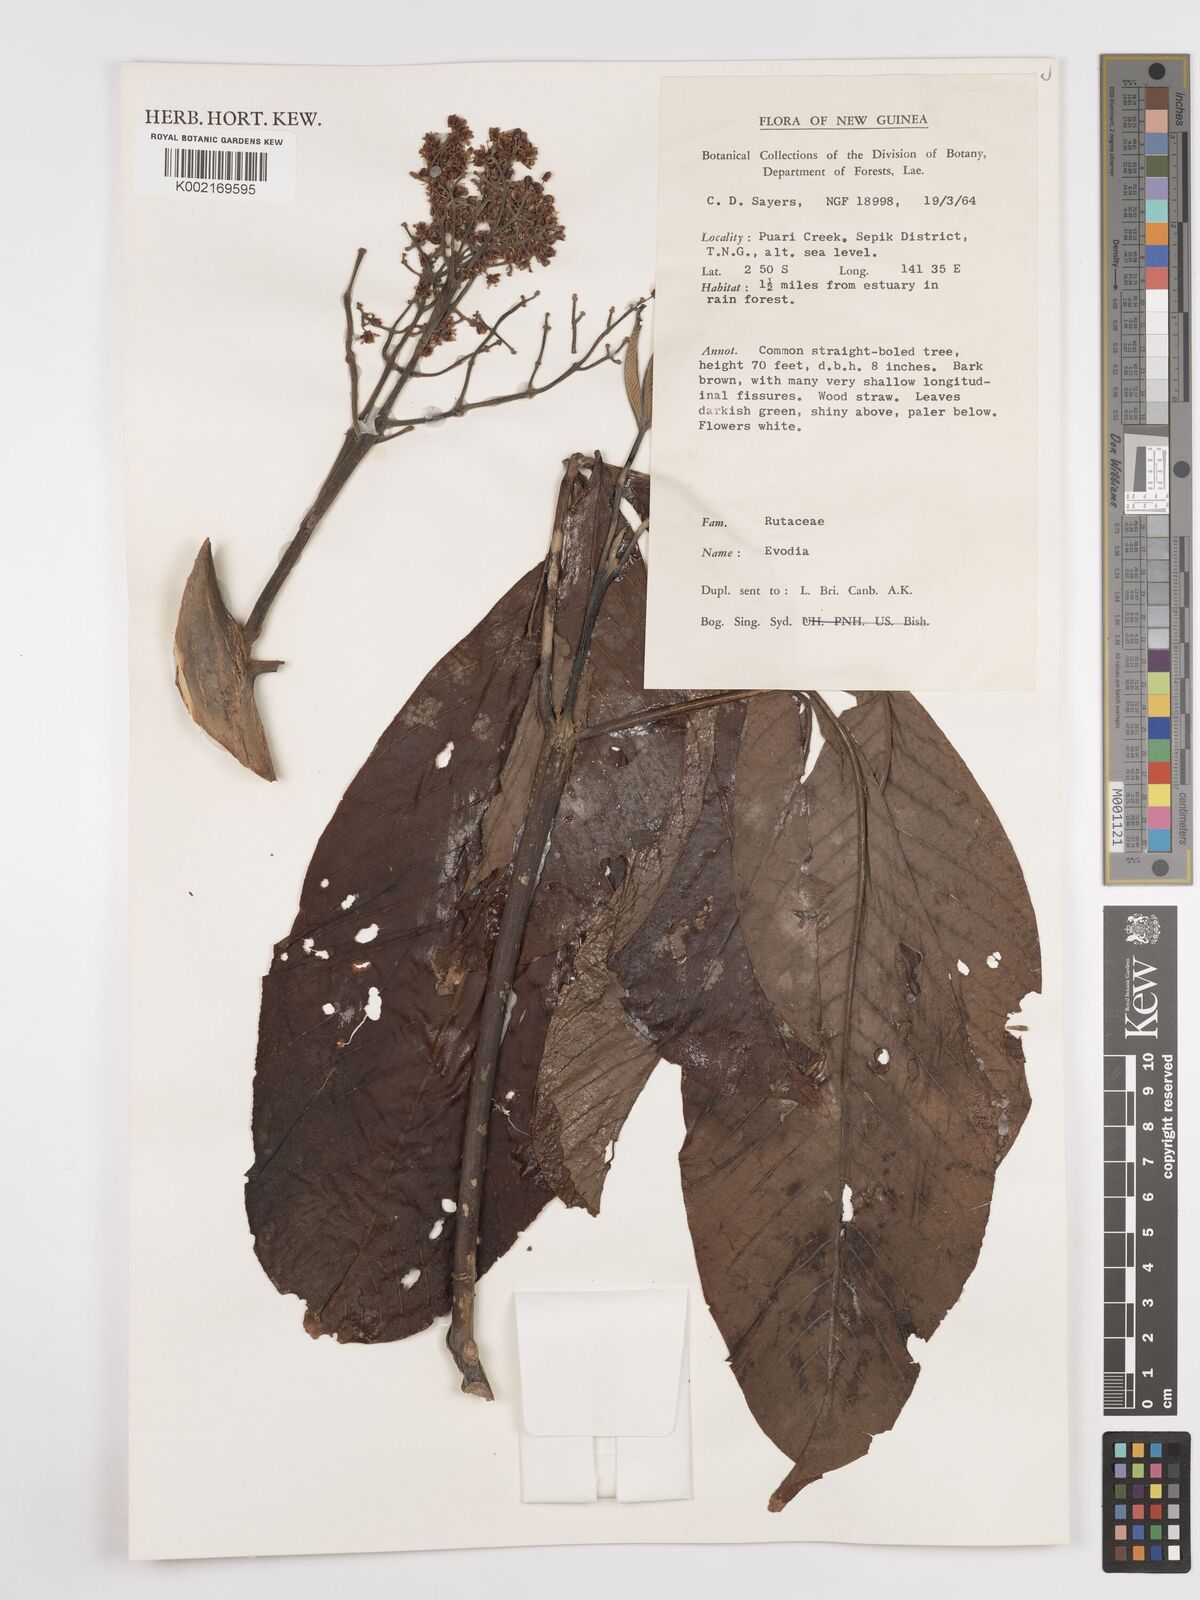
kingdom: Plantae
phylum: Tracheophyta
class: Magnoliopsida
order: Sapindales
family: Rutaceae
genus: Euodia
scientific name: Euodia
